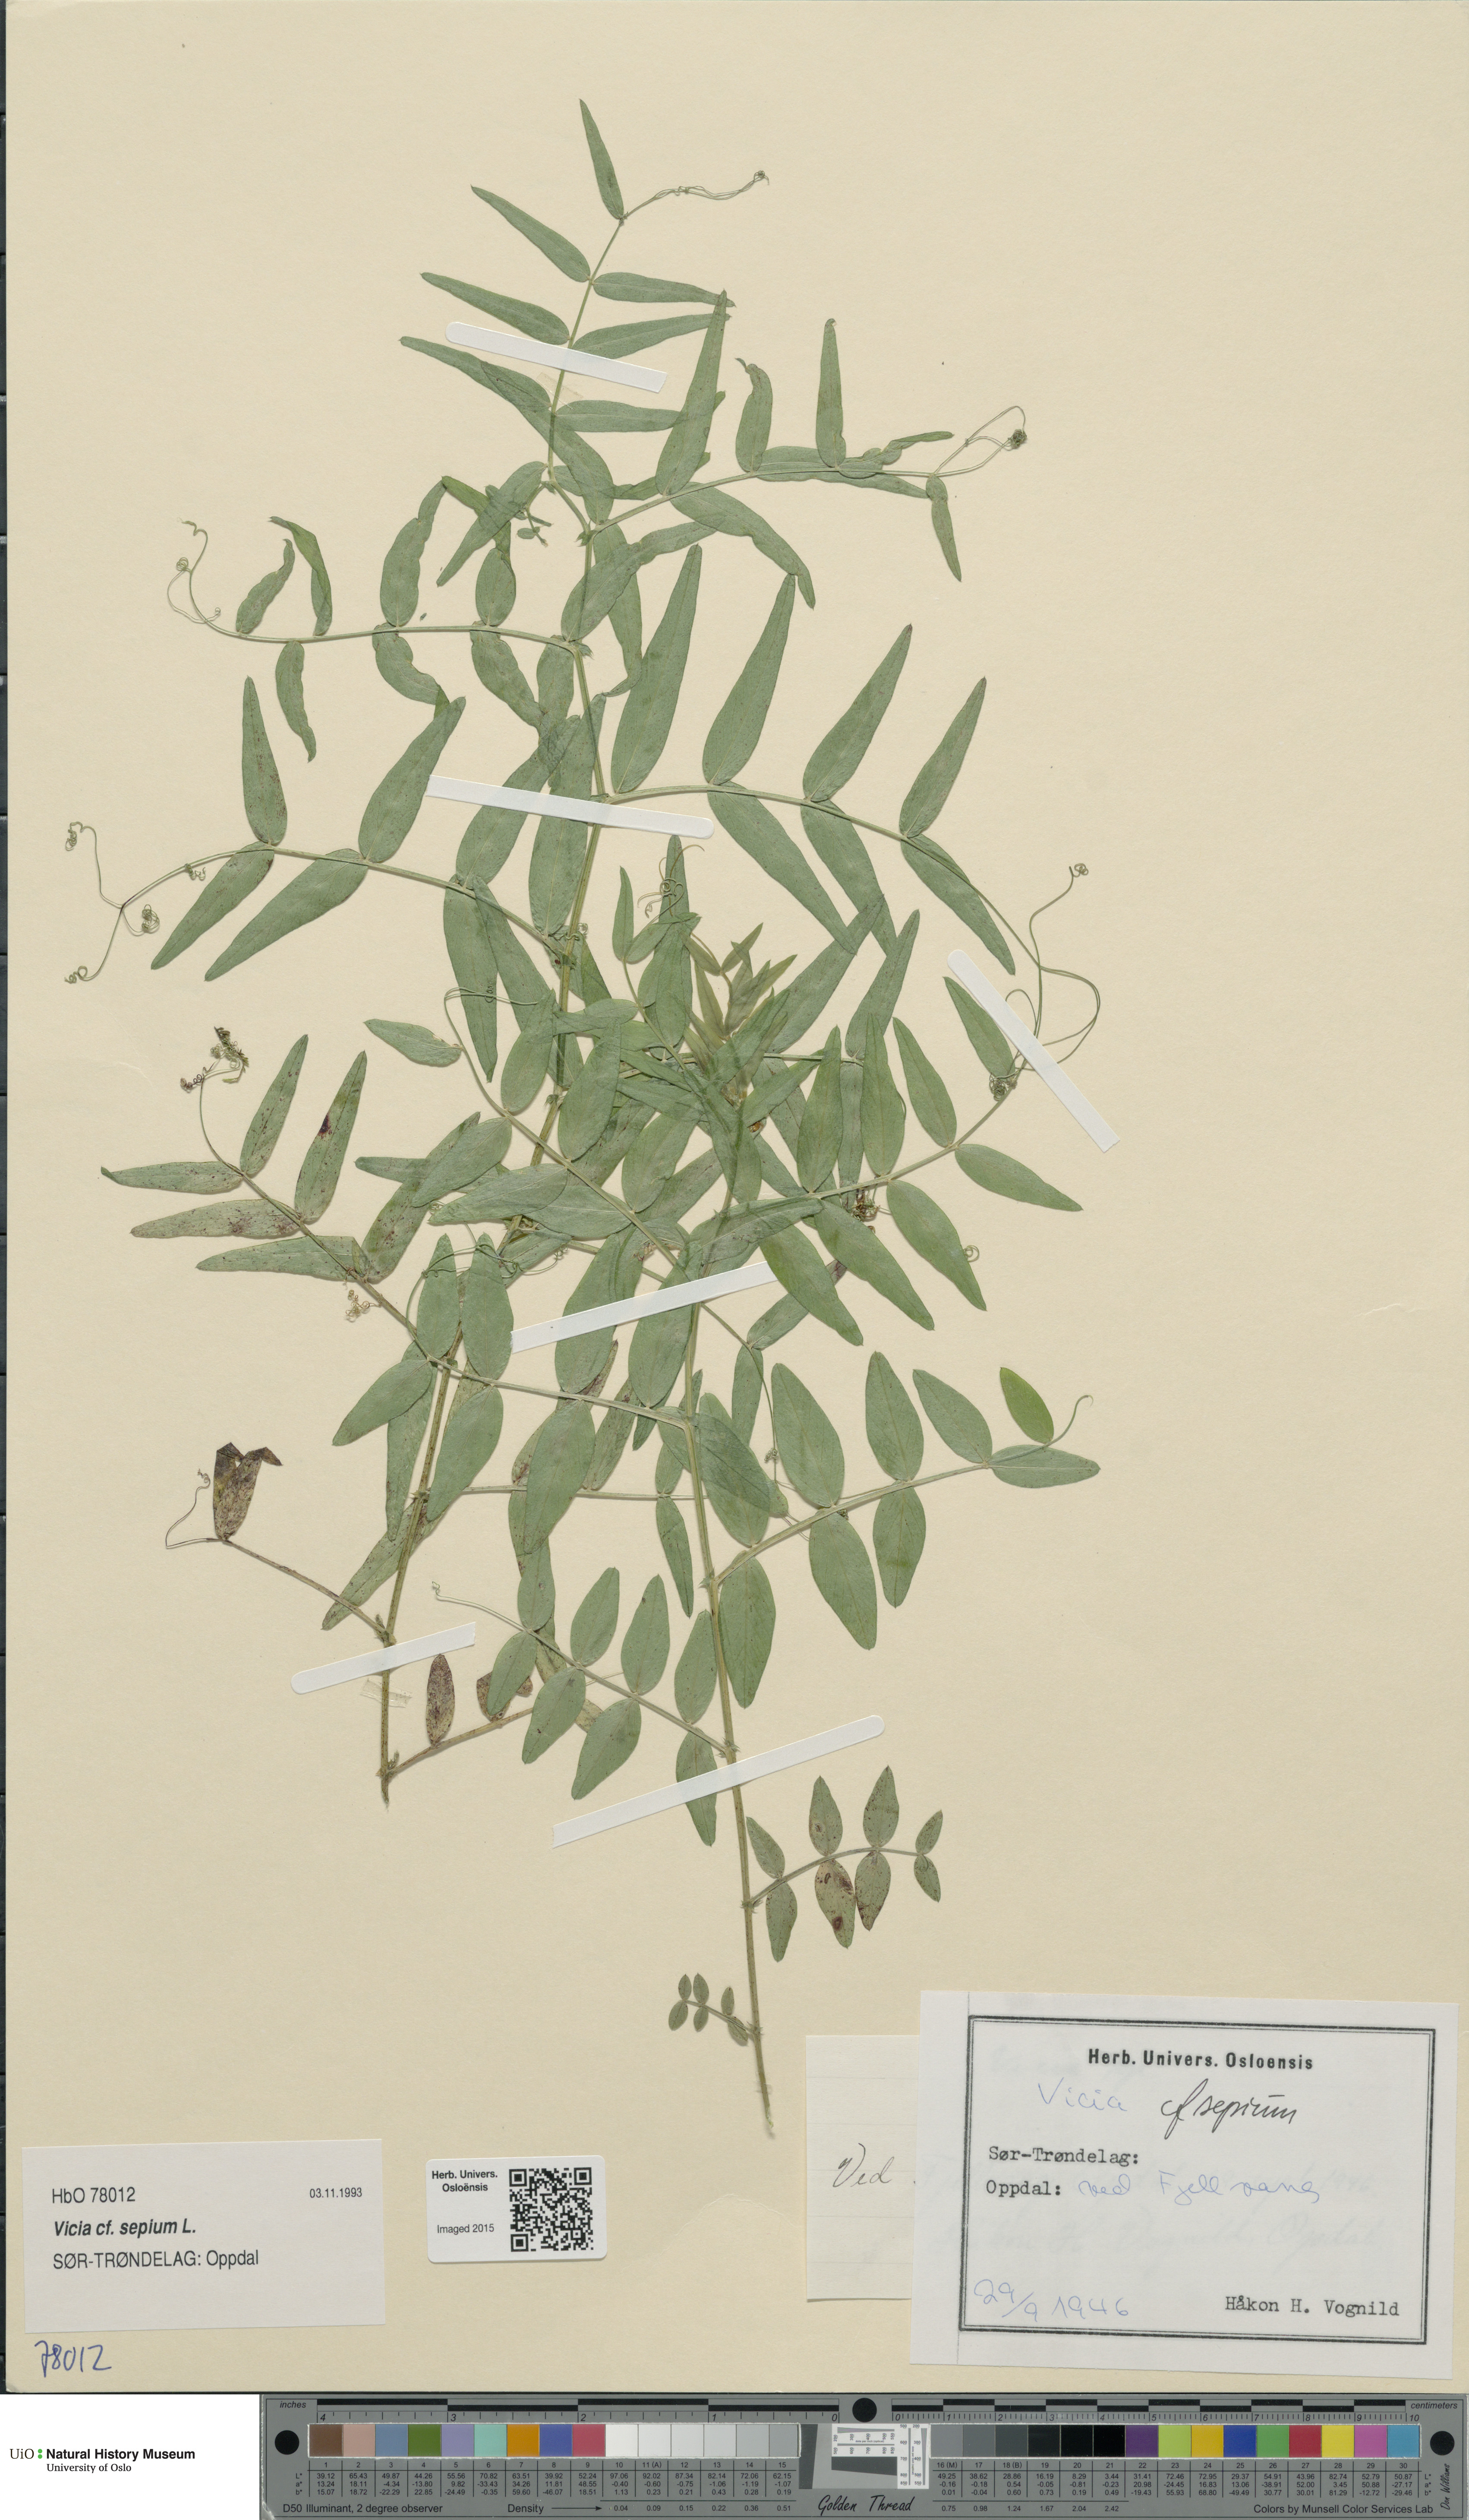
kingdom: Plantae
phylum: Tracheophyta
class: Magnoliopsida
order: Fabales
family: Fabaceae
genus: Vicia
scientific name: Vicia sepium
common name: Bush vetch
